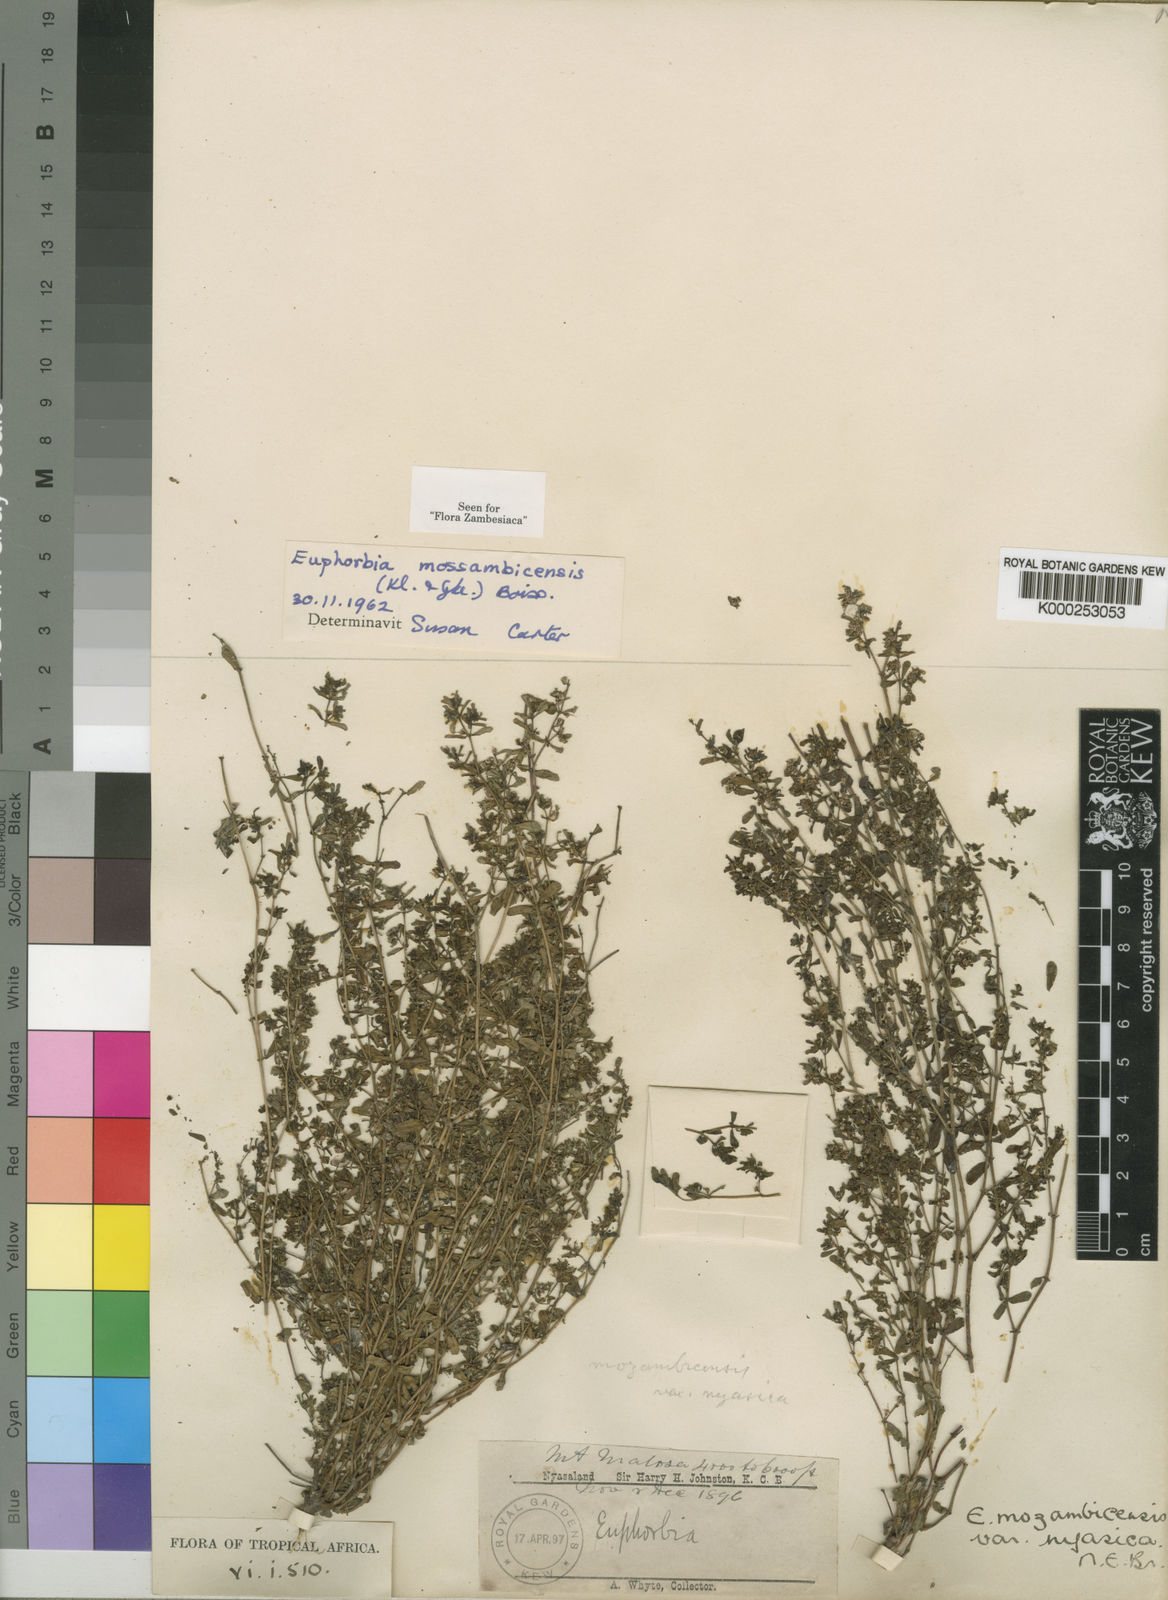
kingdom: Plantae
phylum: Tracheophyta
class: Magnoliopsida
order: Malpighiales
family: Euphorbiaceae
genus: Euphorbia
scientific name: Euphorbia mossambicensis
